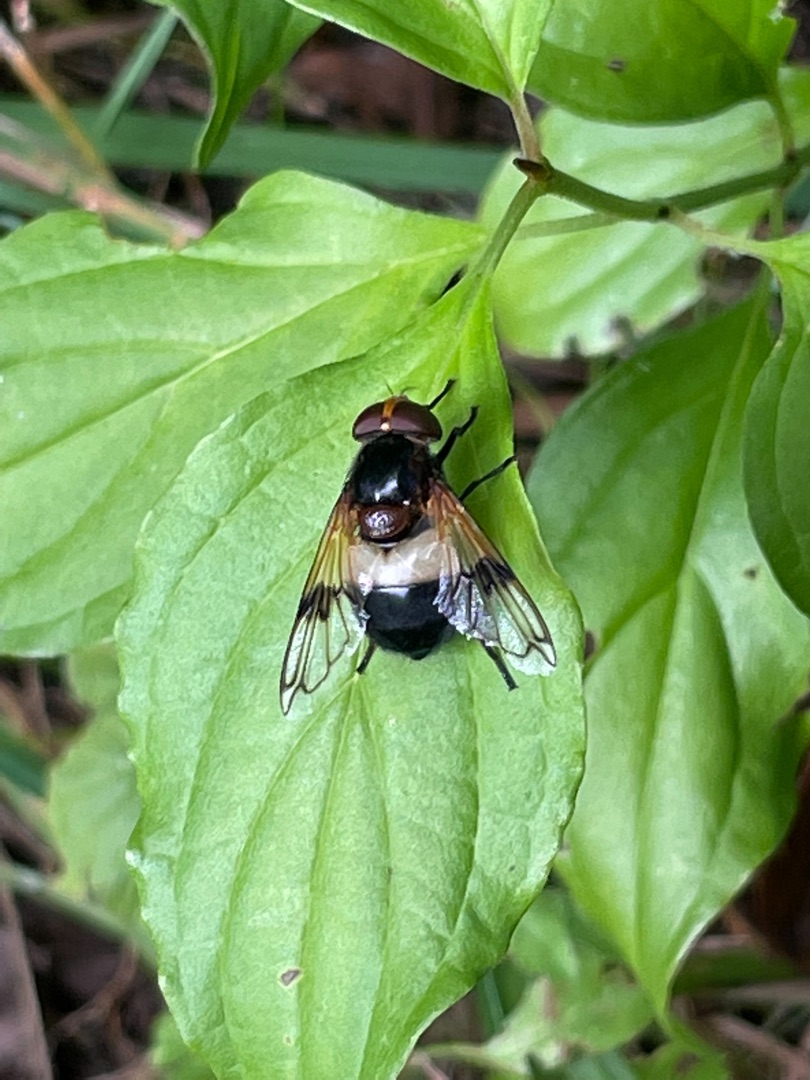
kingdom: Animalia
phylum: Arthropoda
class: Insecta
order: Diptera
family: Syrphidae
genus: Volucella
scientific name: Volucella pellucens
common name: Hvidbåndet humlesvirreflue
